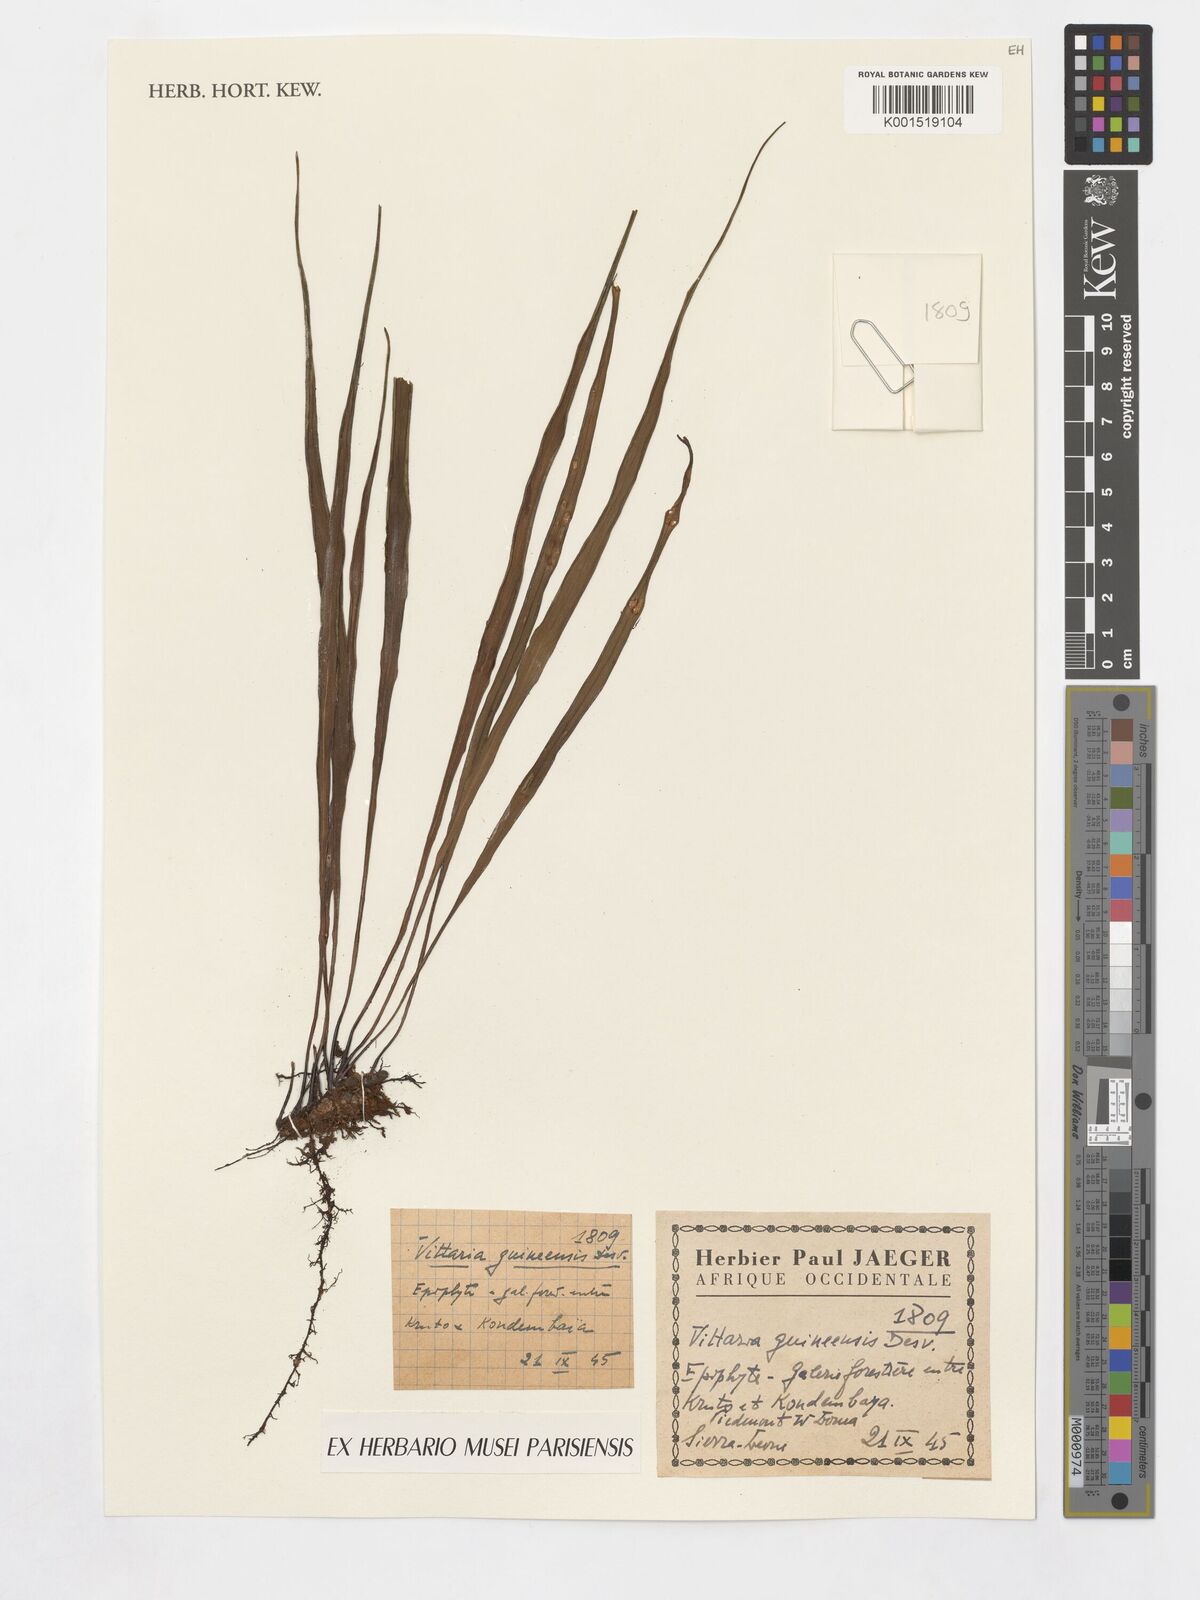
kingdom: Plantae
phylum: Tracheophyta
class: Polypodiopsida
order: Polypodiales
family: Pteridaceae
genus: Haplopteris
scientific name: Haplopteris guineensis
